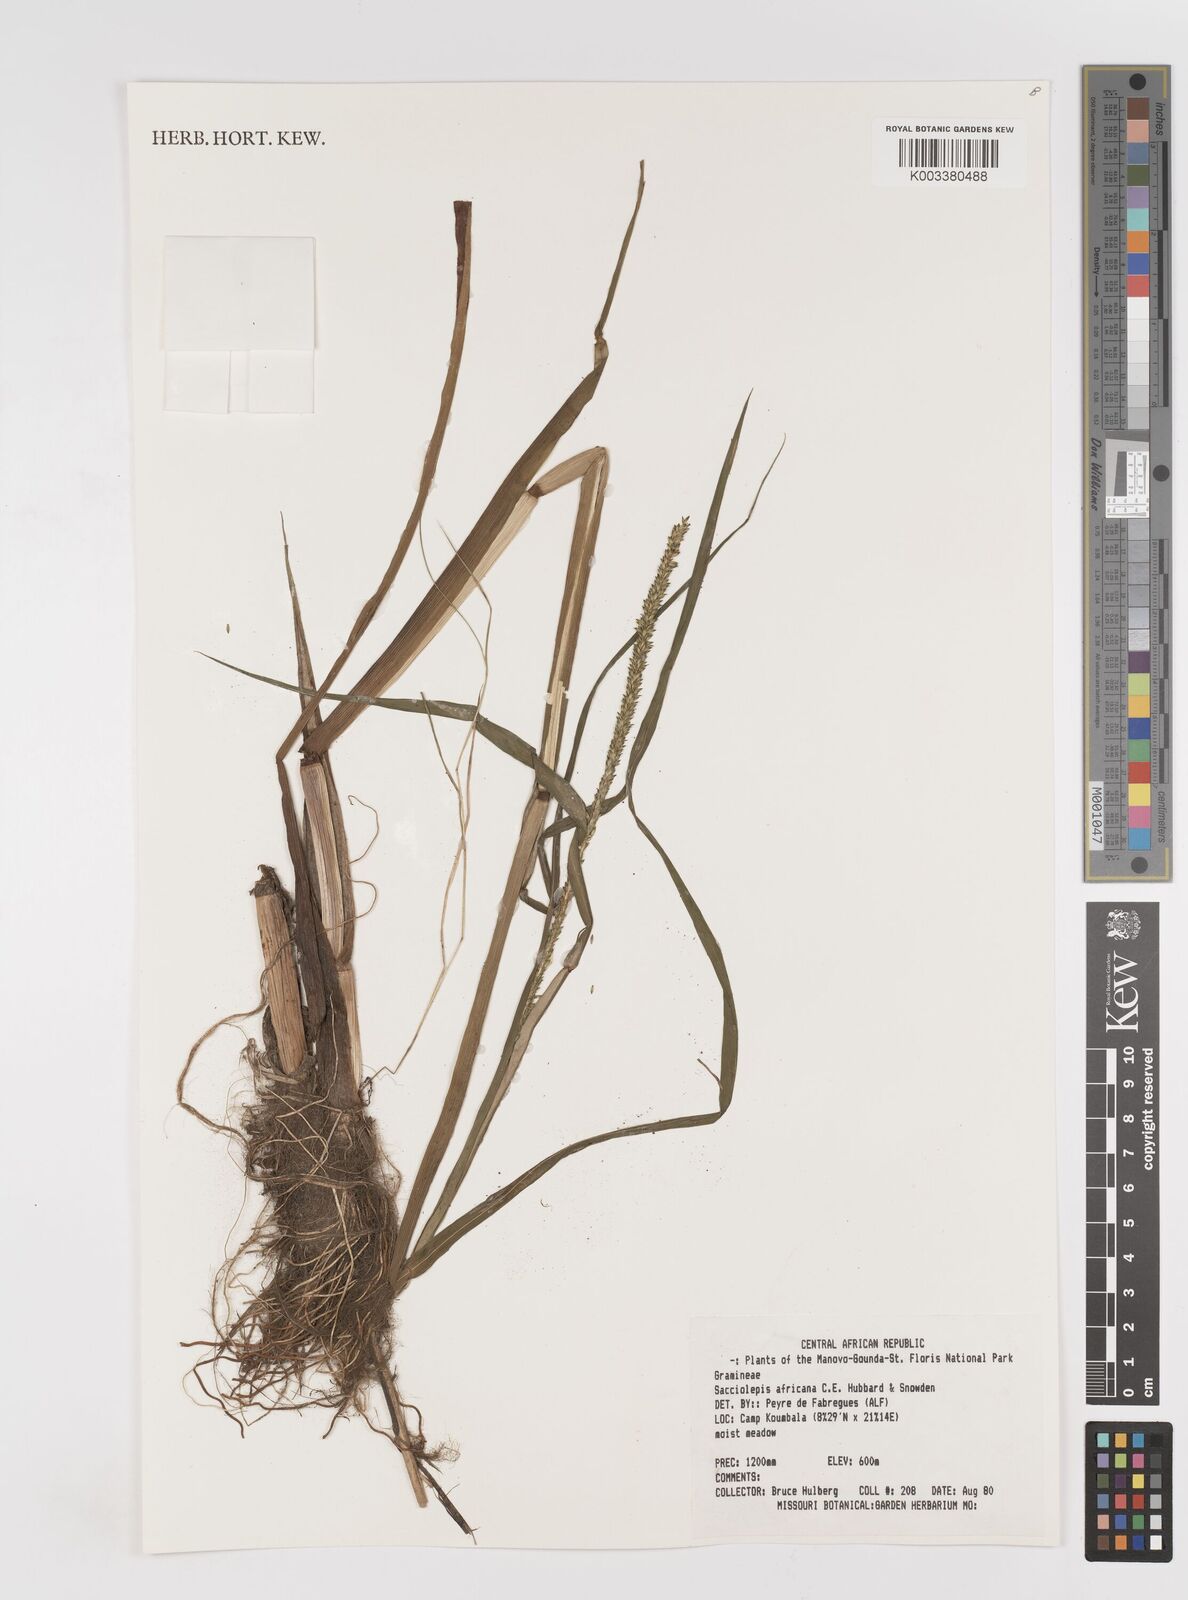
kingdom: Plantae
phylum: Tracheophyta
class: Liliopsida
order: Poales
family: Poaceae
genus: Sacciolepis
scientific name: Sacciolepis africana
